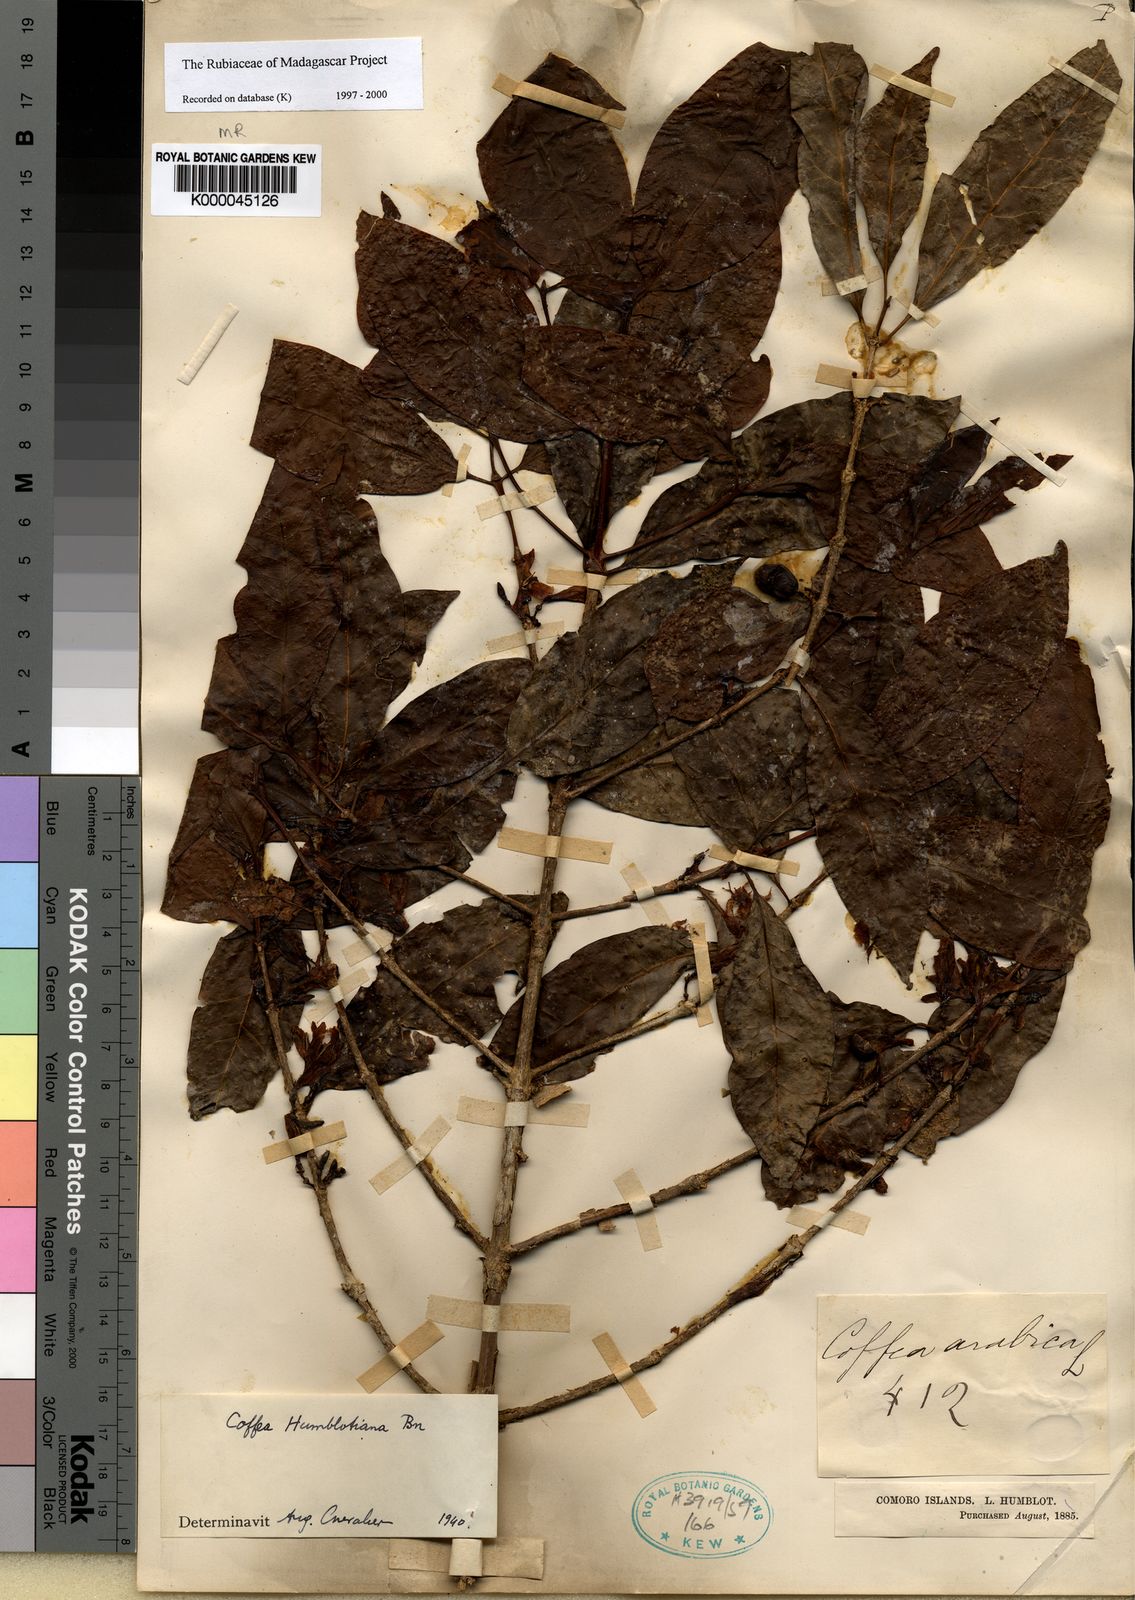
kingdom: Plantae
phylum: Tracheophyta
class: Magnoliopsida
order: Gentianales
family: Rubiaceae
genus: Coffea
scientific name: Coffea humblotiana
